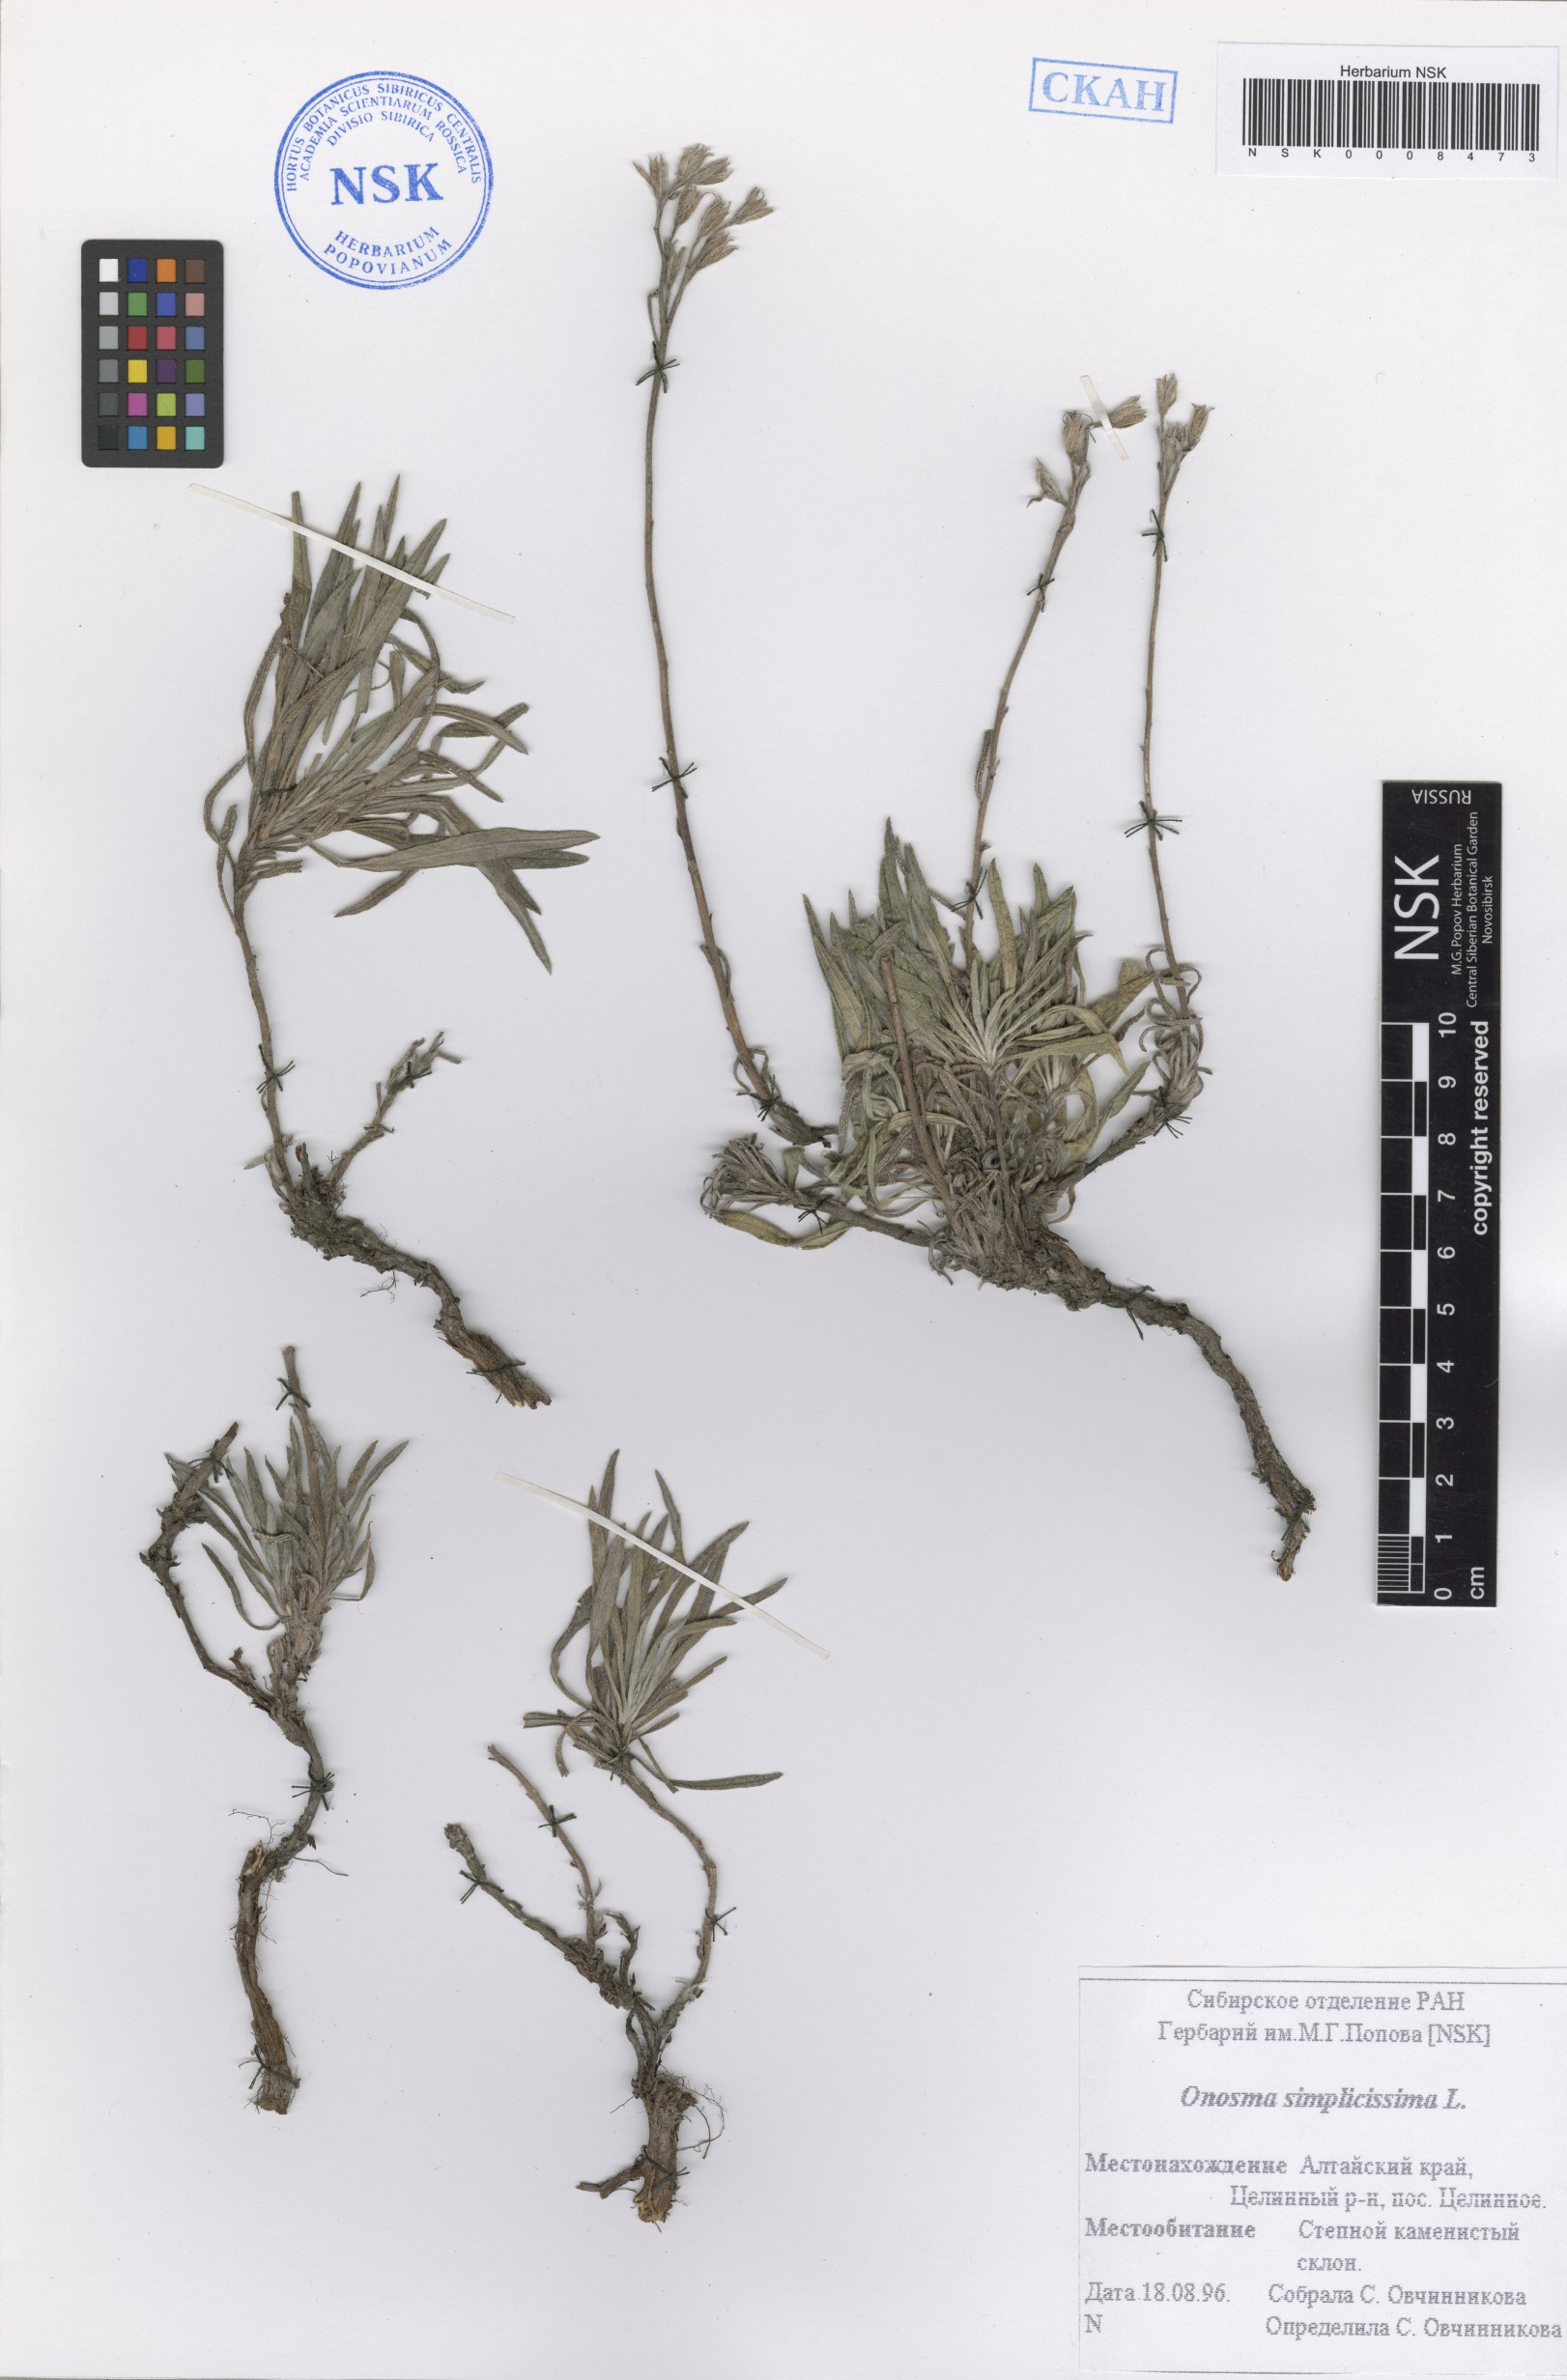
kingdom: Plantae
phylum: Tracheophyta
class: Magnoliopsida
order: Boraginales
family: Boraginaceae
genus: Onosma
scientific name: Onosma simplicissima
